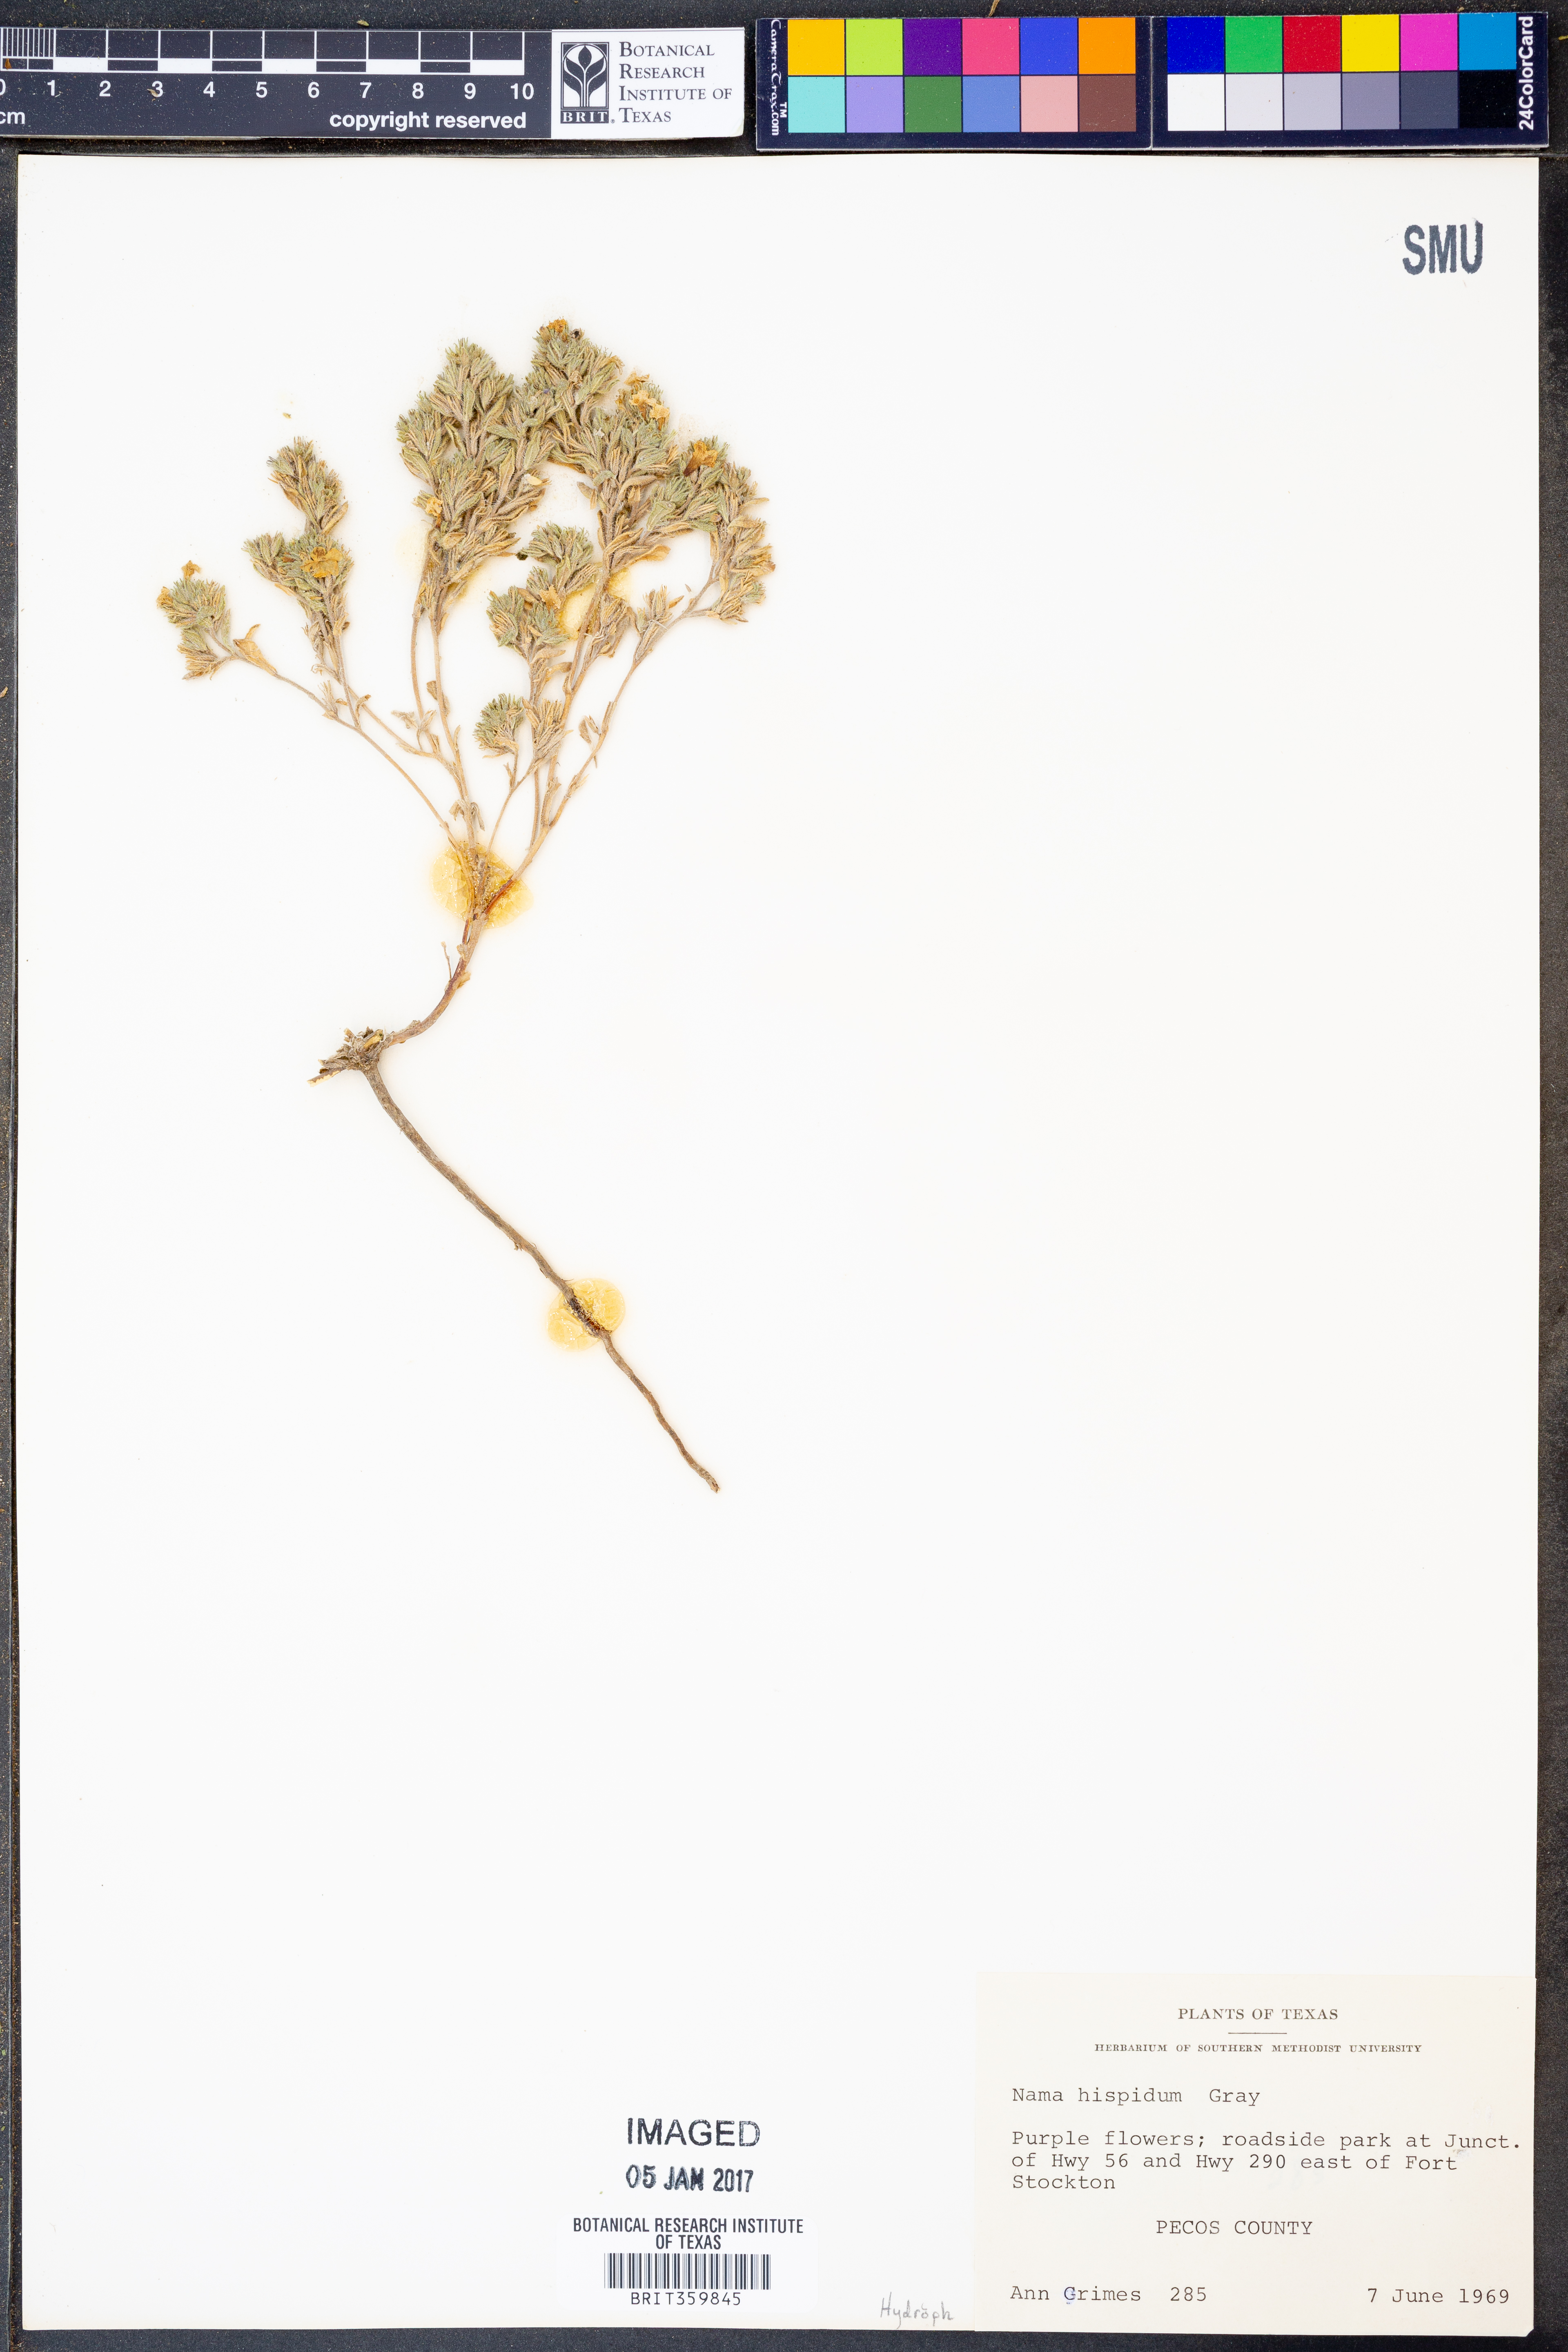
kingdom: Plantae
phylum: Tracheophyta
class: Magnoliopsida
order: Boraginales
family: Namaceae
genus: Nama
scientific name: Nama hispida
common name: Bristly nama
